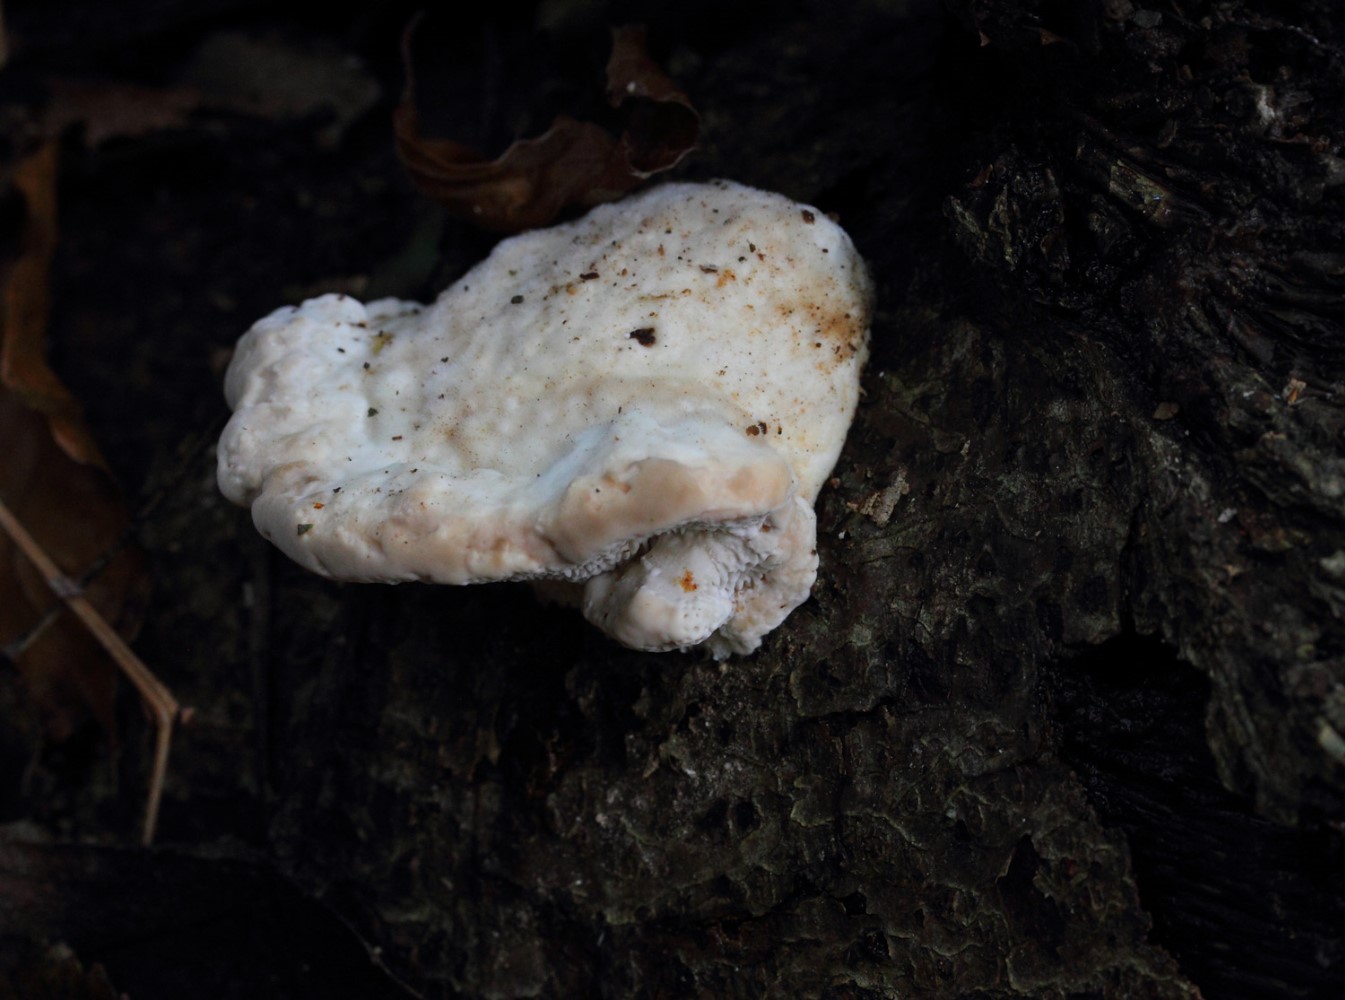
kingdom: Fungi
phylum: Basidiomycota
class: Agaricomycetes
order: Polyporales
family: Polyporaceae
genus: Trametes
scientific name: Trametes gibbosa
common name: puklet læderporesvamp
